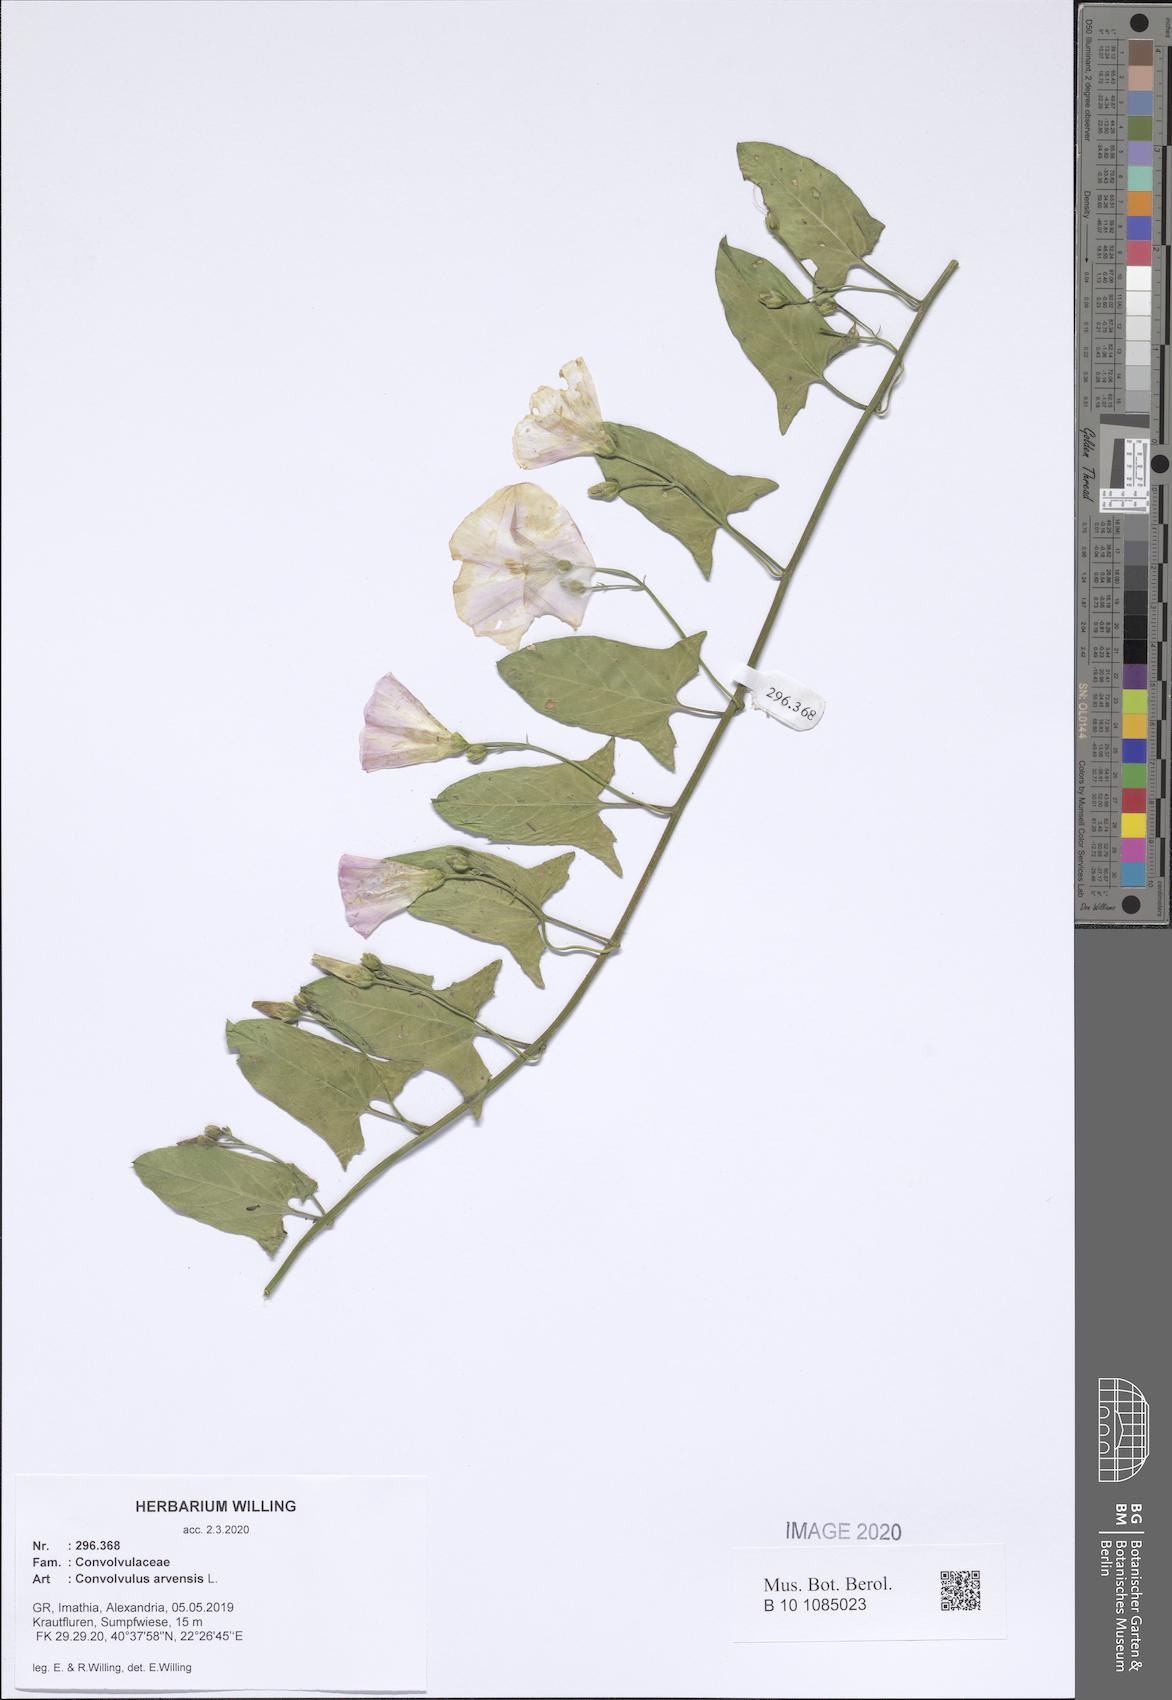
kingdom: Plantae
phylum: Tracheophyta
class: Magnoliopsida
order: Solanales
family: Convolvulaceae
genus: Convolvulus
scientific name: Convolvulus arvensis
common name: Field bindweed
